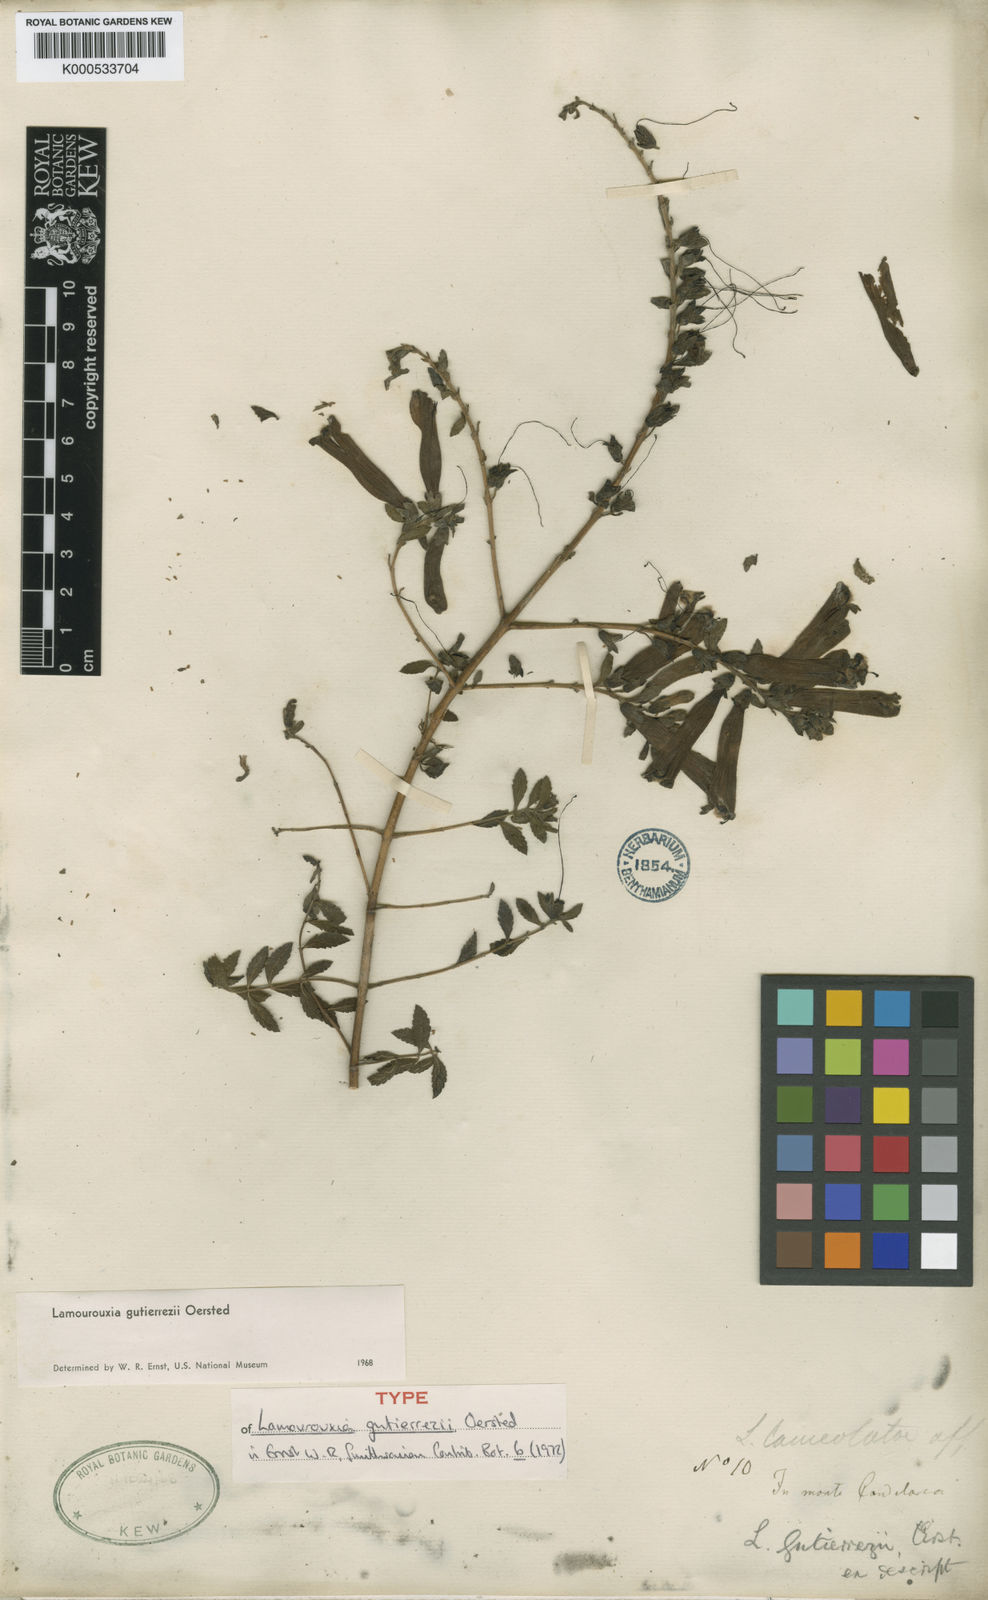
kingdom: Plantae
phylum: Tracheophyta
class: Magnoliopsida
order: Lamiales
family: Orobanchaceae
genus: Lamourouxia
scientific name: Lamourouxia gutierrezii
